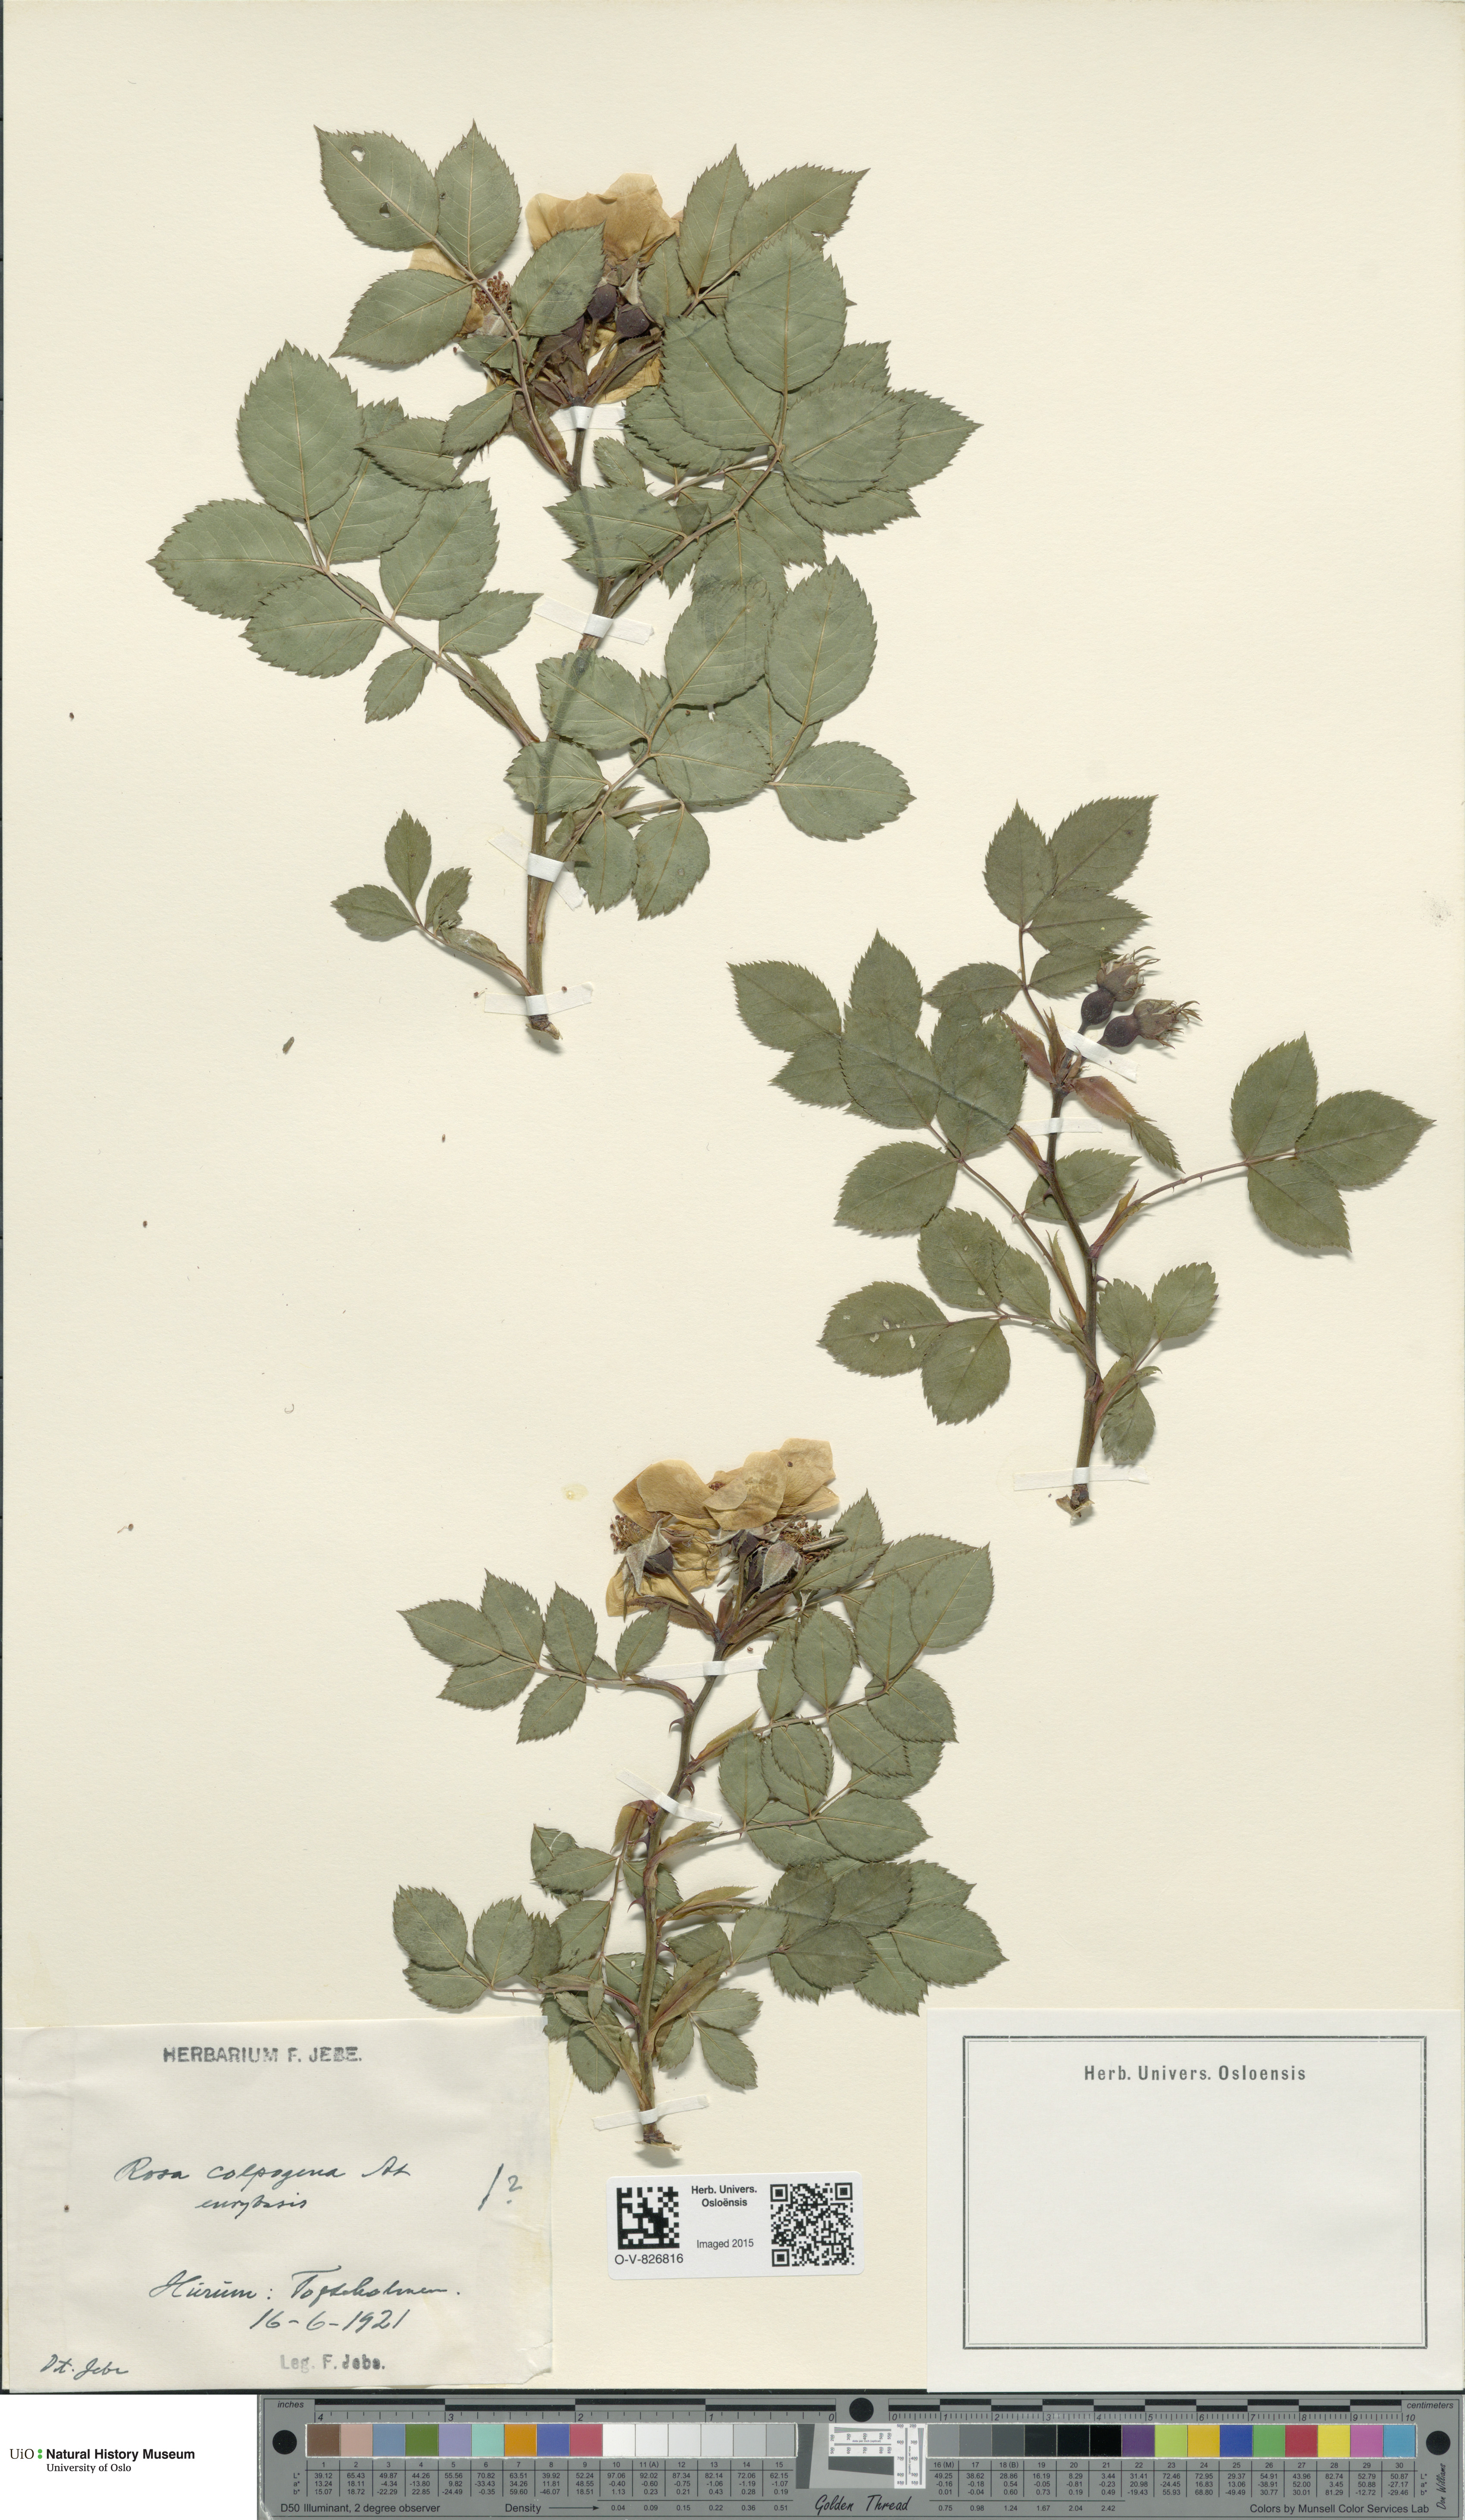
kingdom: Plantae
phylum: Tracheophyta
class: Magnoliopsida
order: Rosales
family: Rosaceae
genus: Rosa
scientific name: Rosa subcanina
